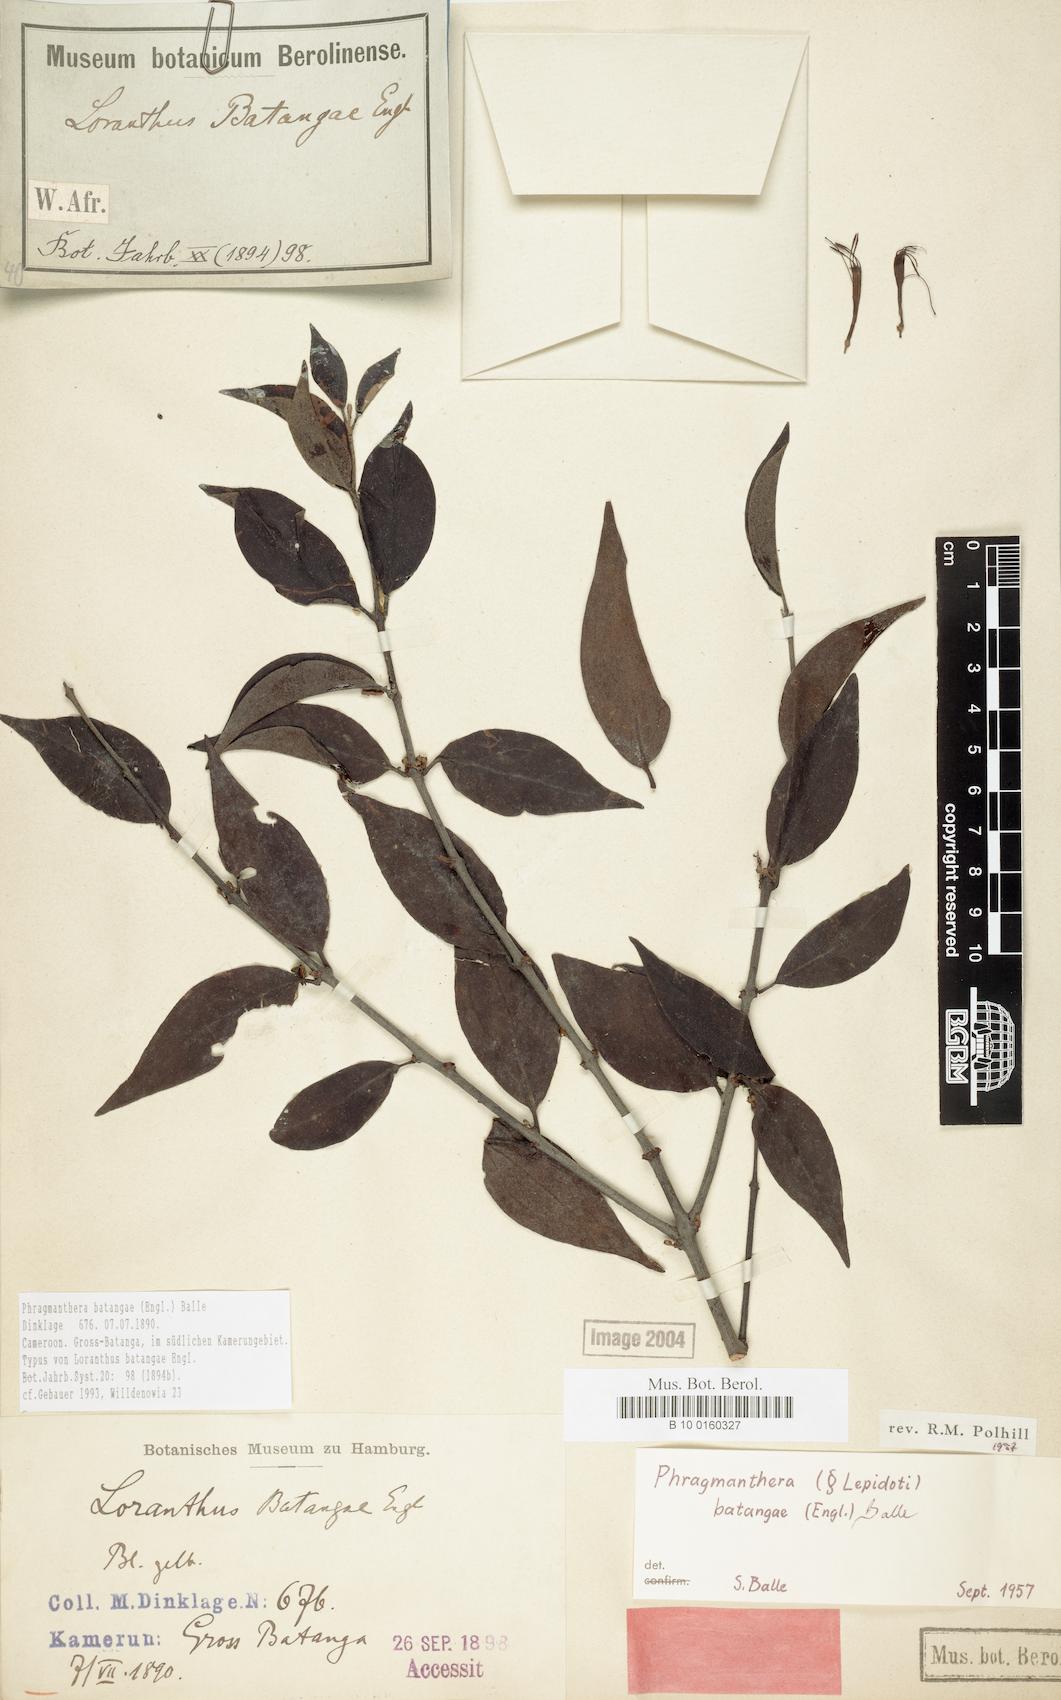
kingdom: Plantae
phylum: Tracheophyta
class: Magnoliopsida
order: Santalales
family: Loranthaceae
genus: Phragmanthera
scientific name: Phragmanthera batangae
